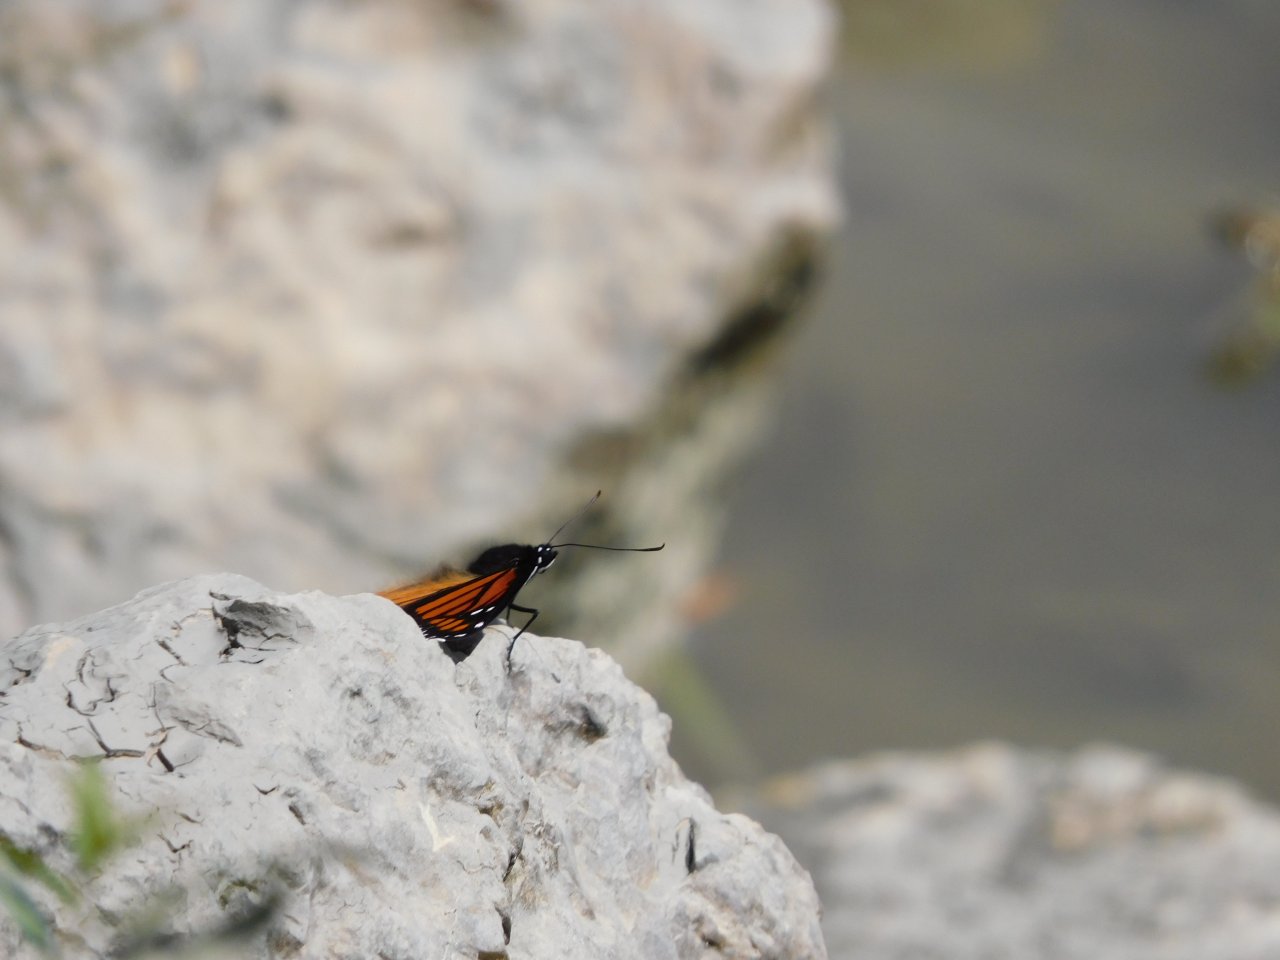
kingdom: Animalia
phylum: Arthropoda
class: Insecta
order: Lepidoptera
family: Nymphalidae
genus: Limenitis
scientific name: Limenitis archippus
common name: Viceroy
